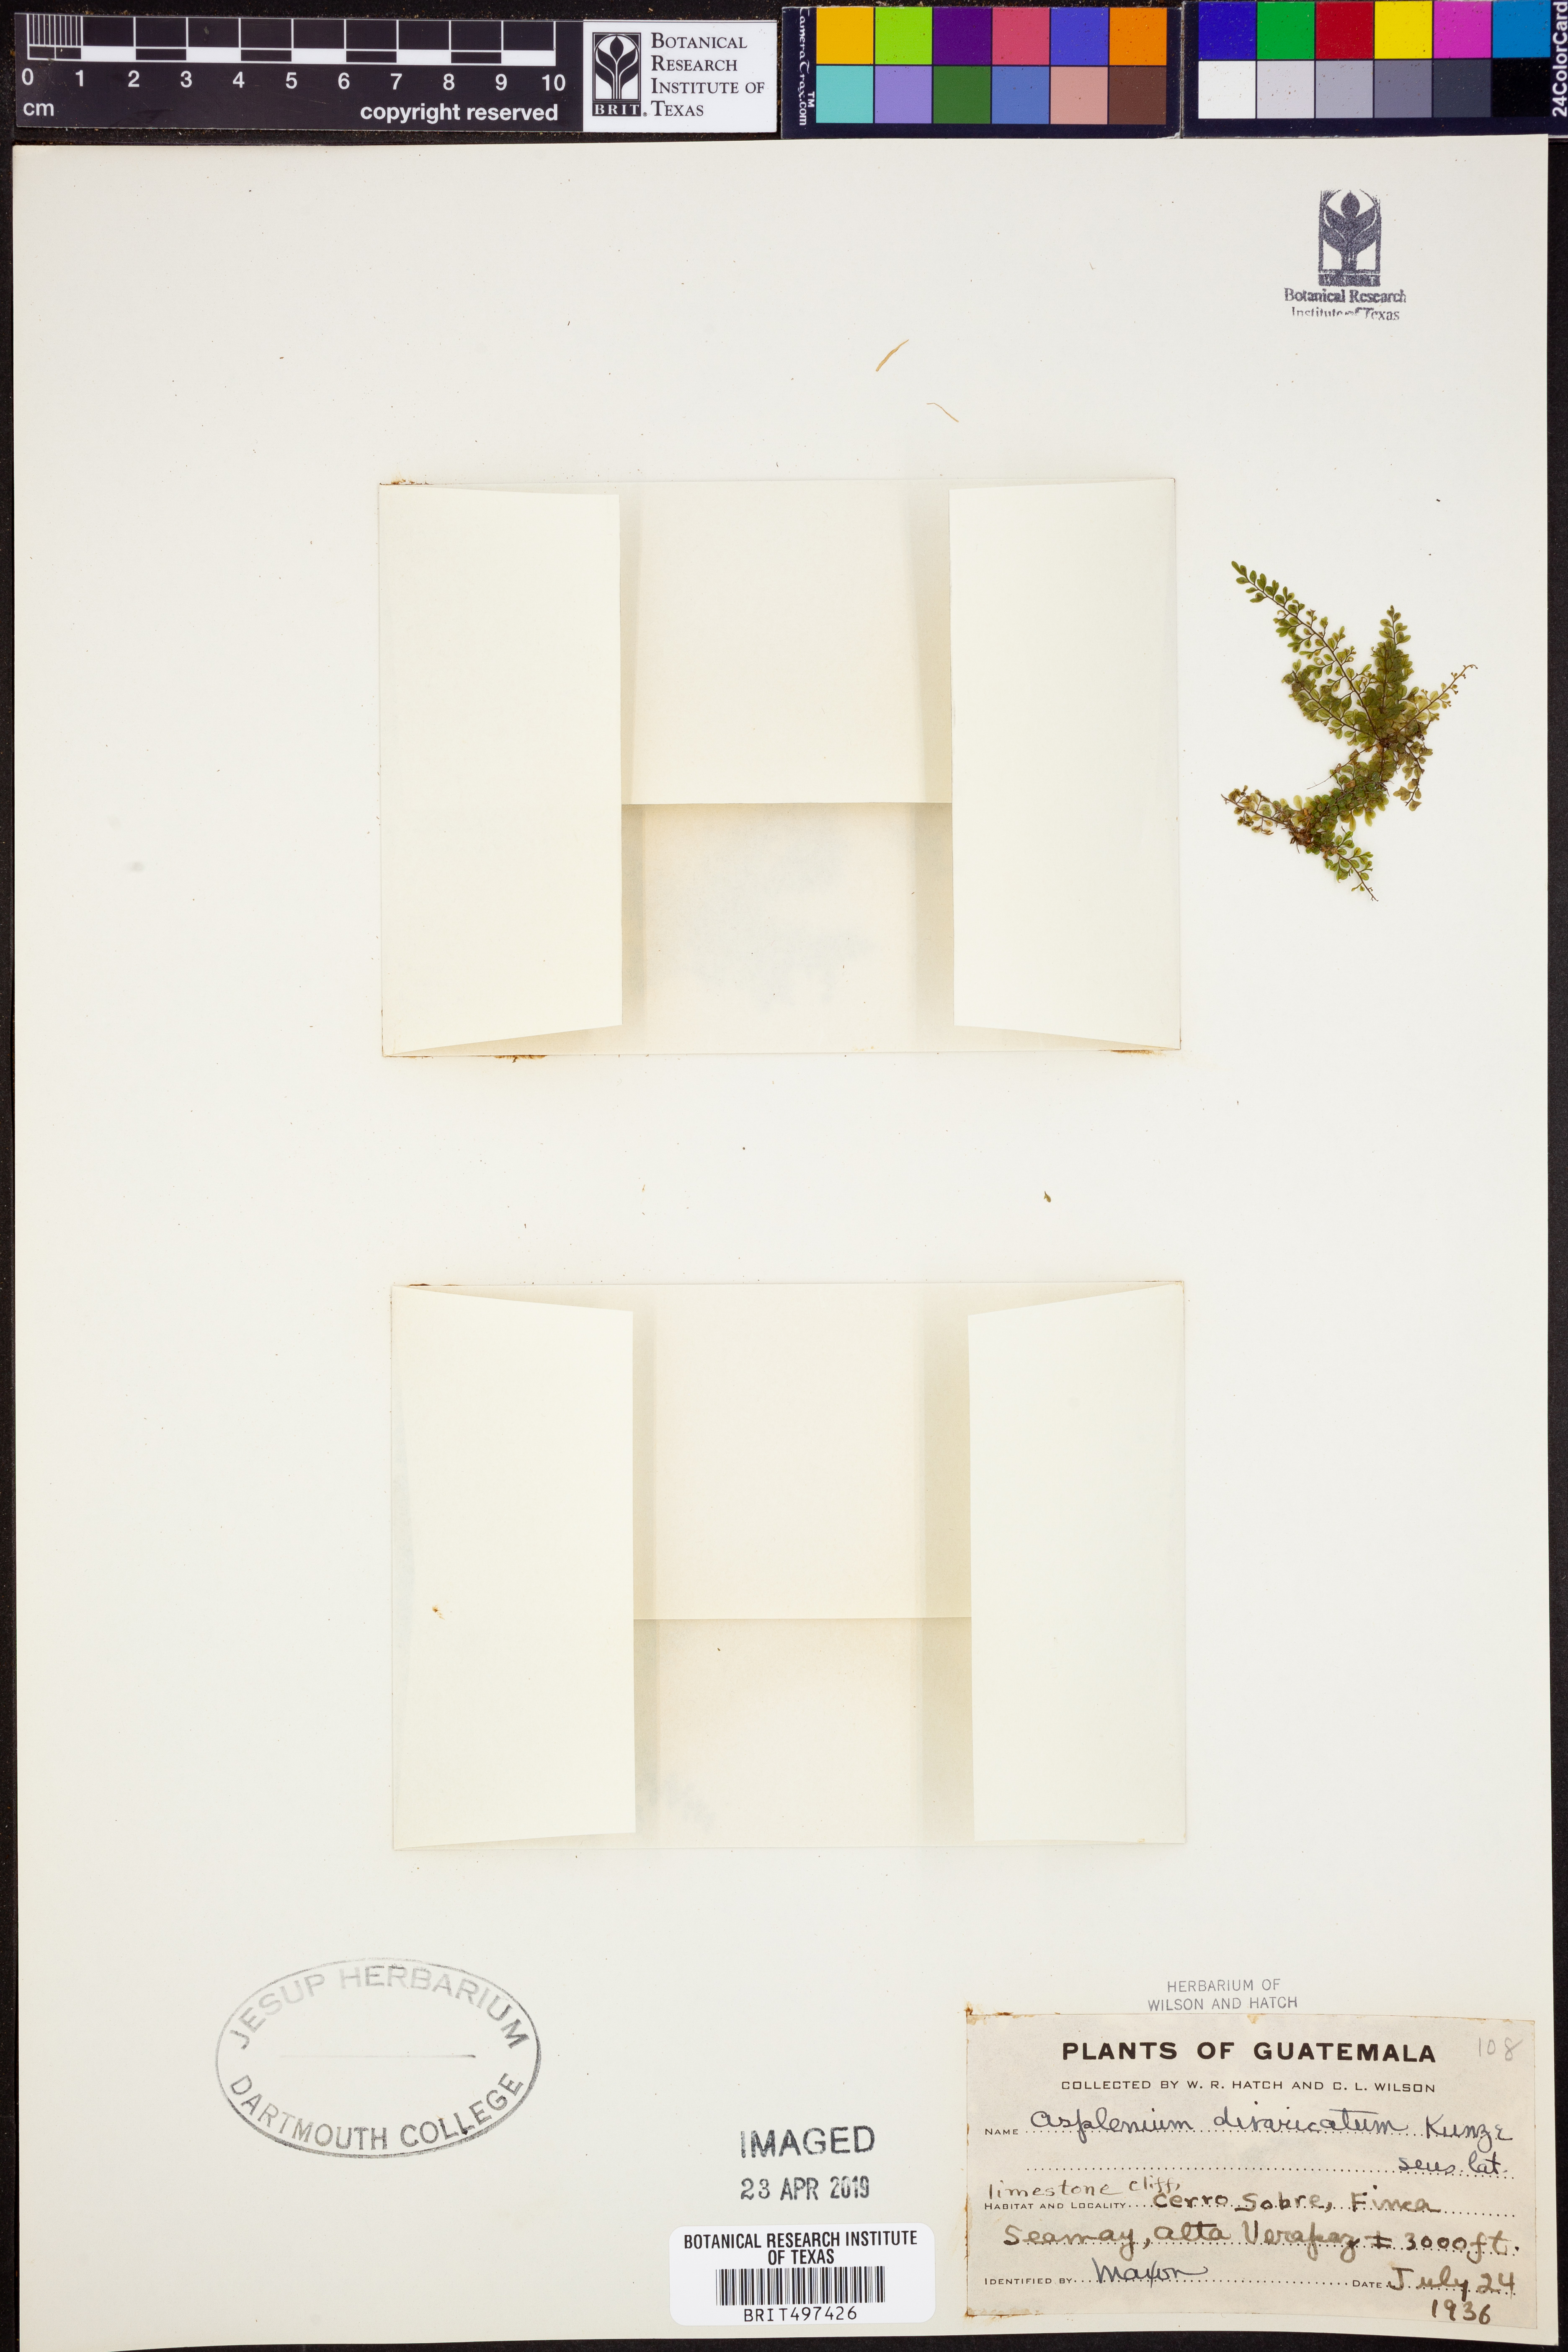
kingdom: Plantae
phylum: Tracheophyta
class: Polypodiopsida
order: Polypodiales
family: Aspleniaceae
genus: Asplenium
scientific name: Asplenium divaricatum
